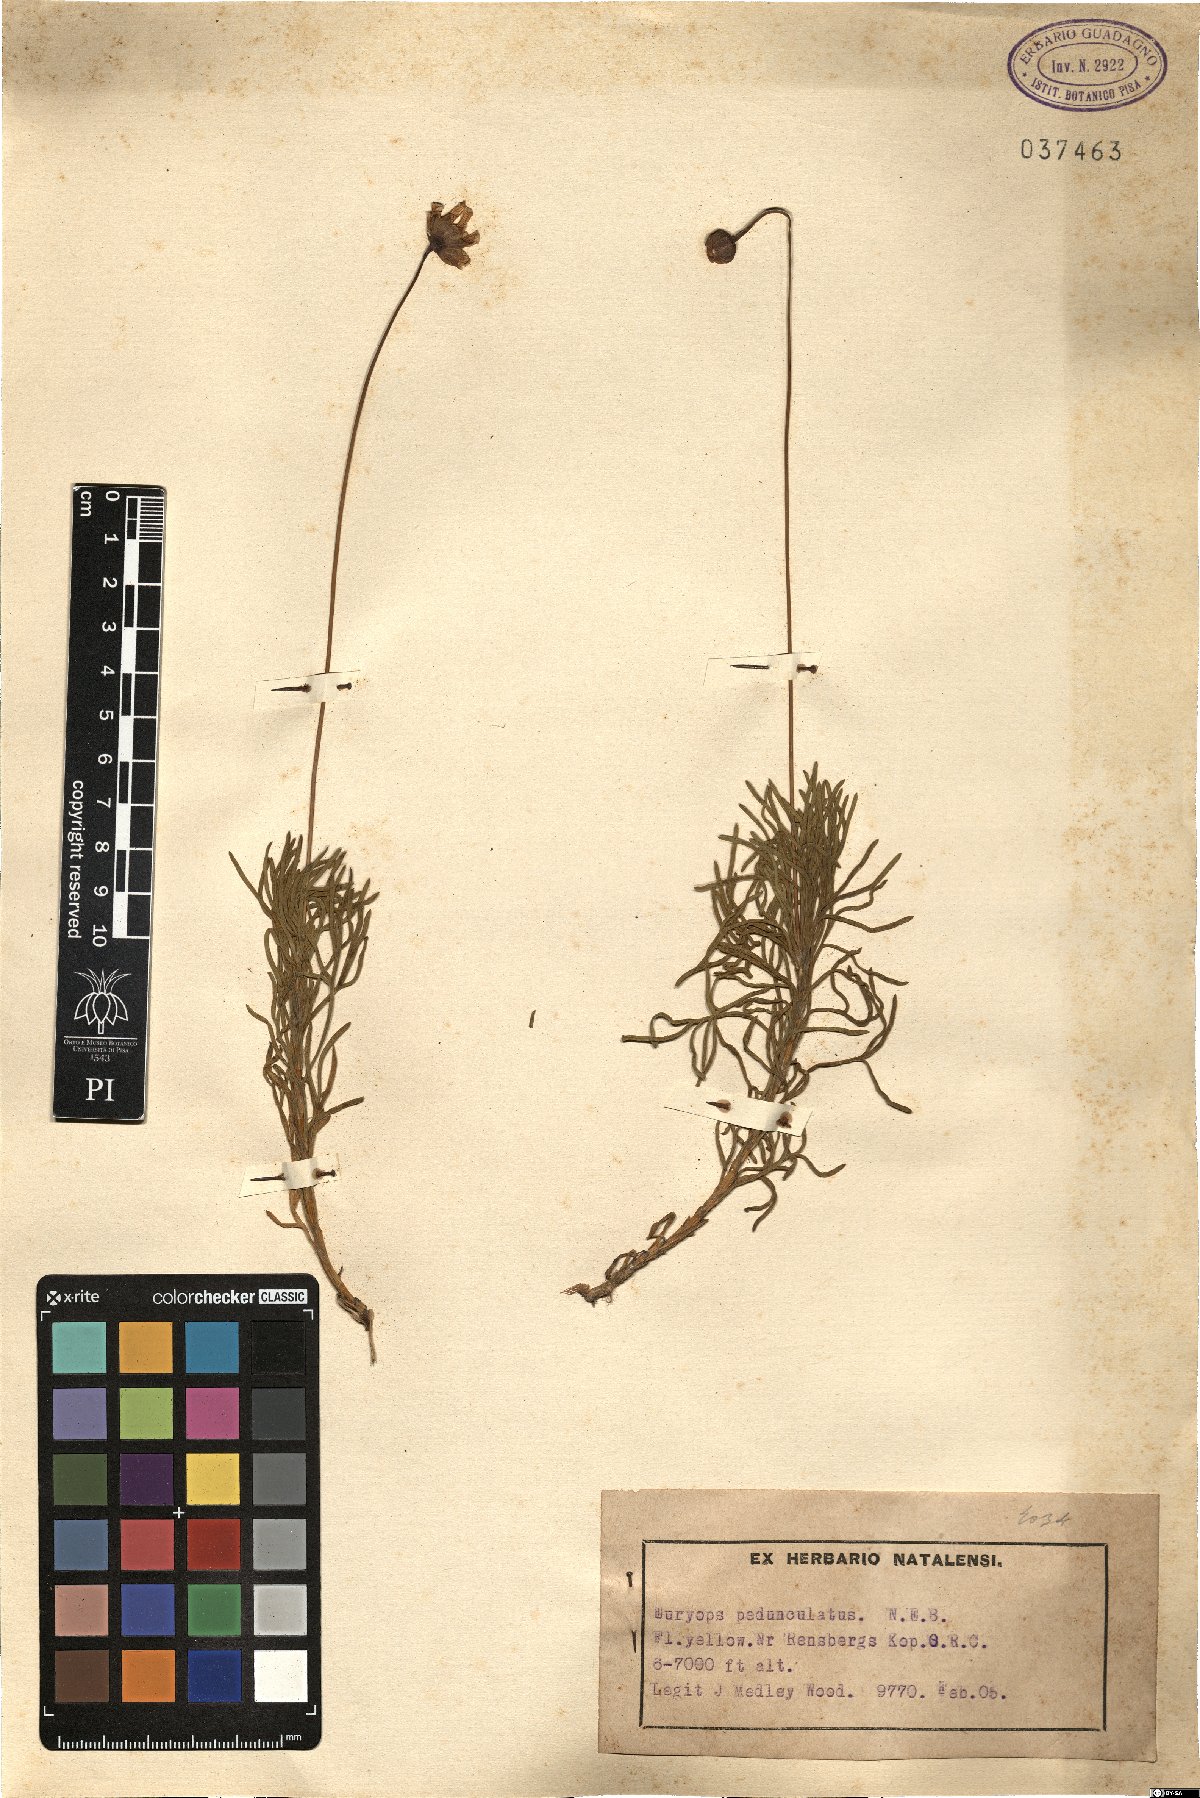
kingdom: Plantae
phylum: Tracheophyta
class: Magnoliopsida
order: Asterales
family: Asteraceae
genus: Euryops
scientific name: Euryops pedunculatus
